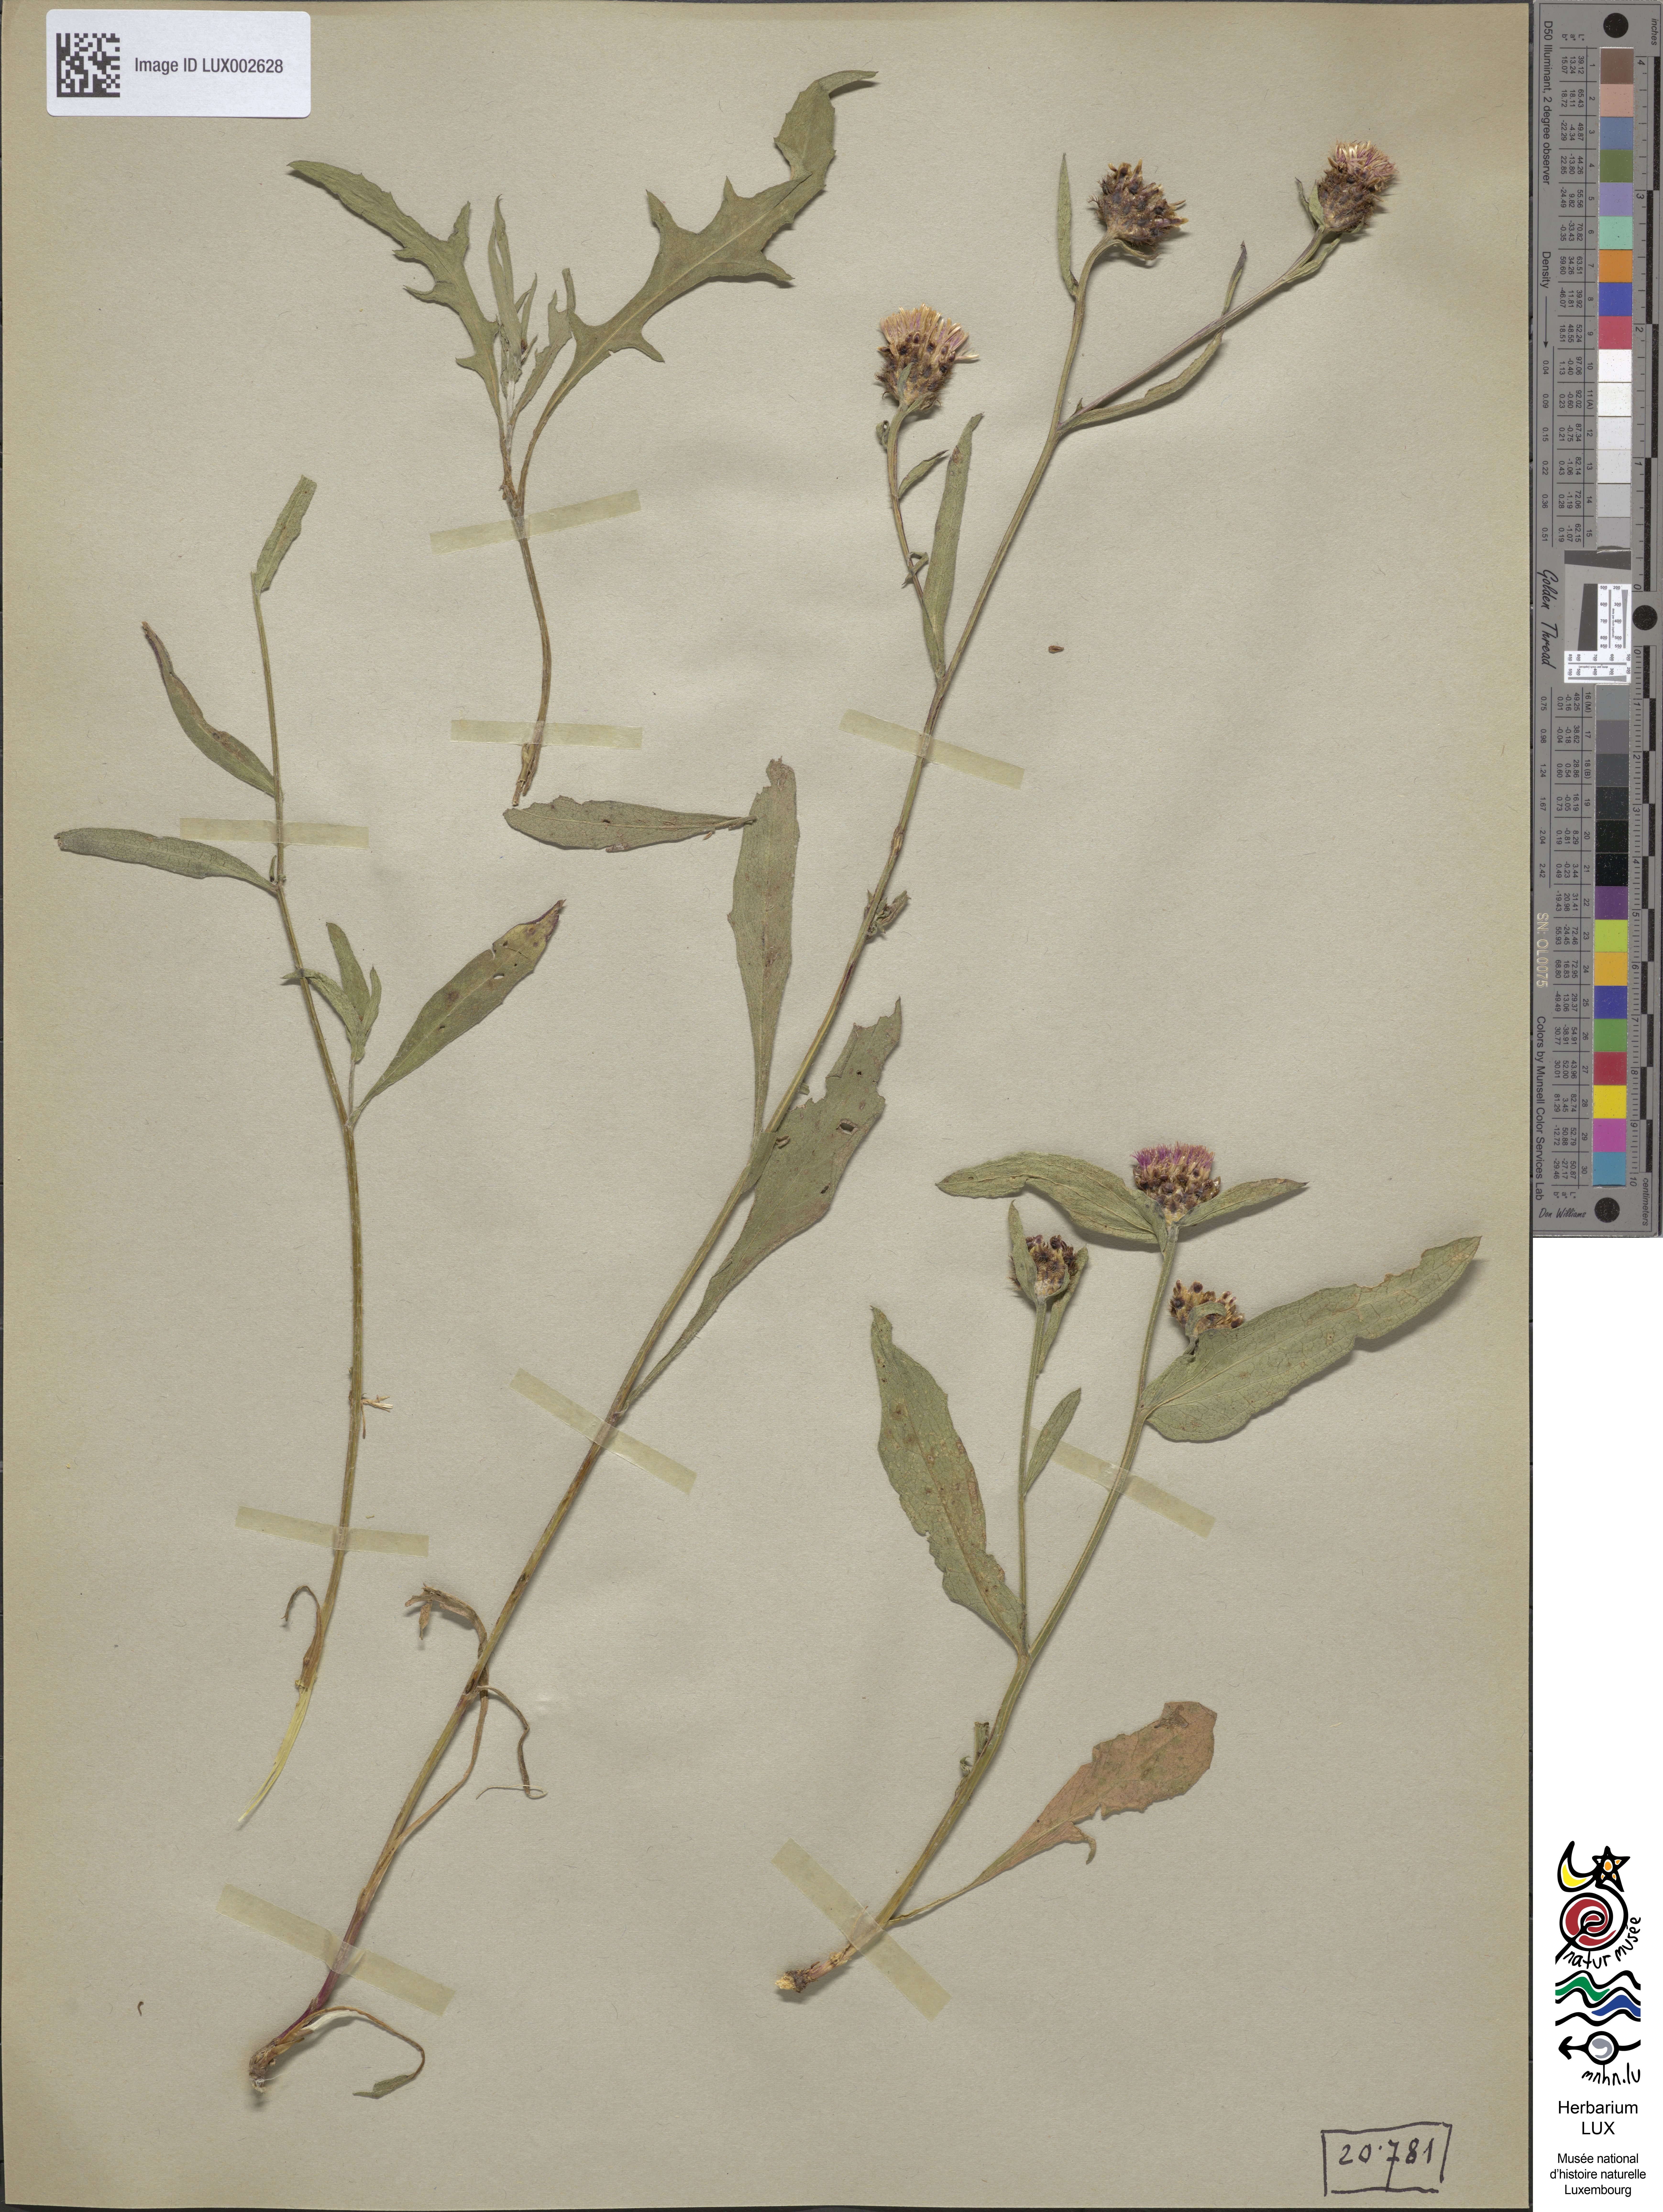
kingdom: Plantae
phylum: Tracheophyta
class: Magnoliopsida
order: Asterales
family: Asteraceae
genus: Centaurea
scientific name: Centaurea
